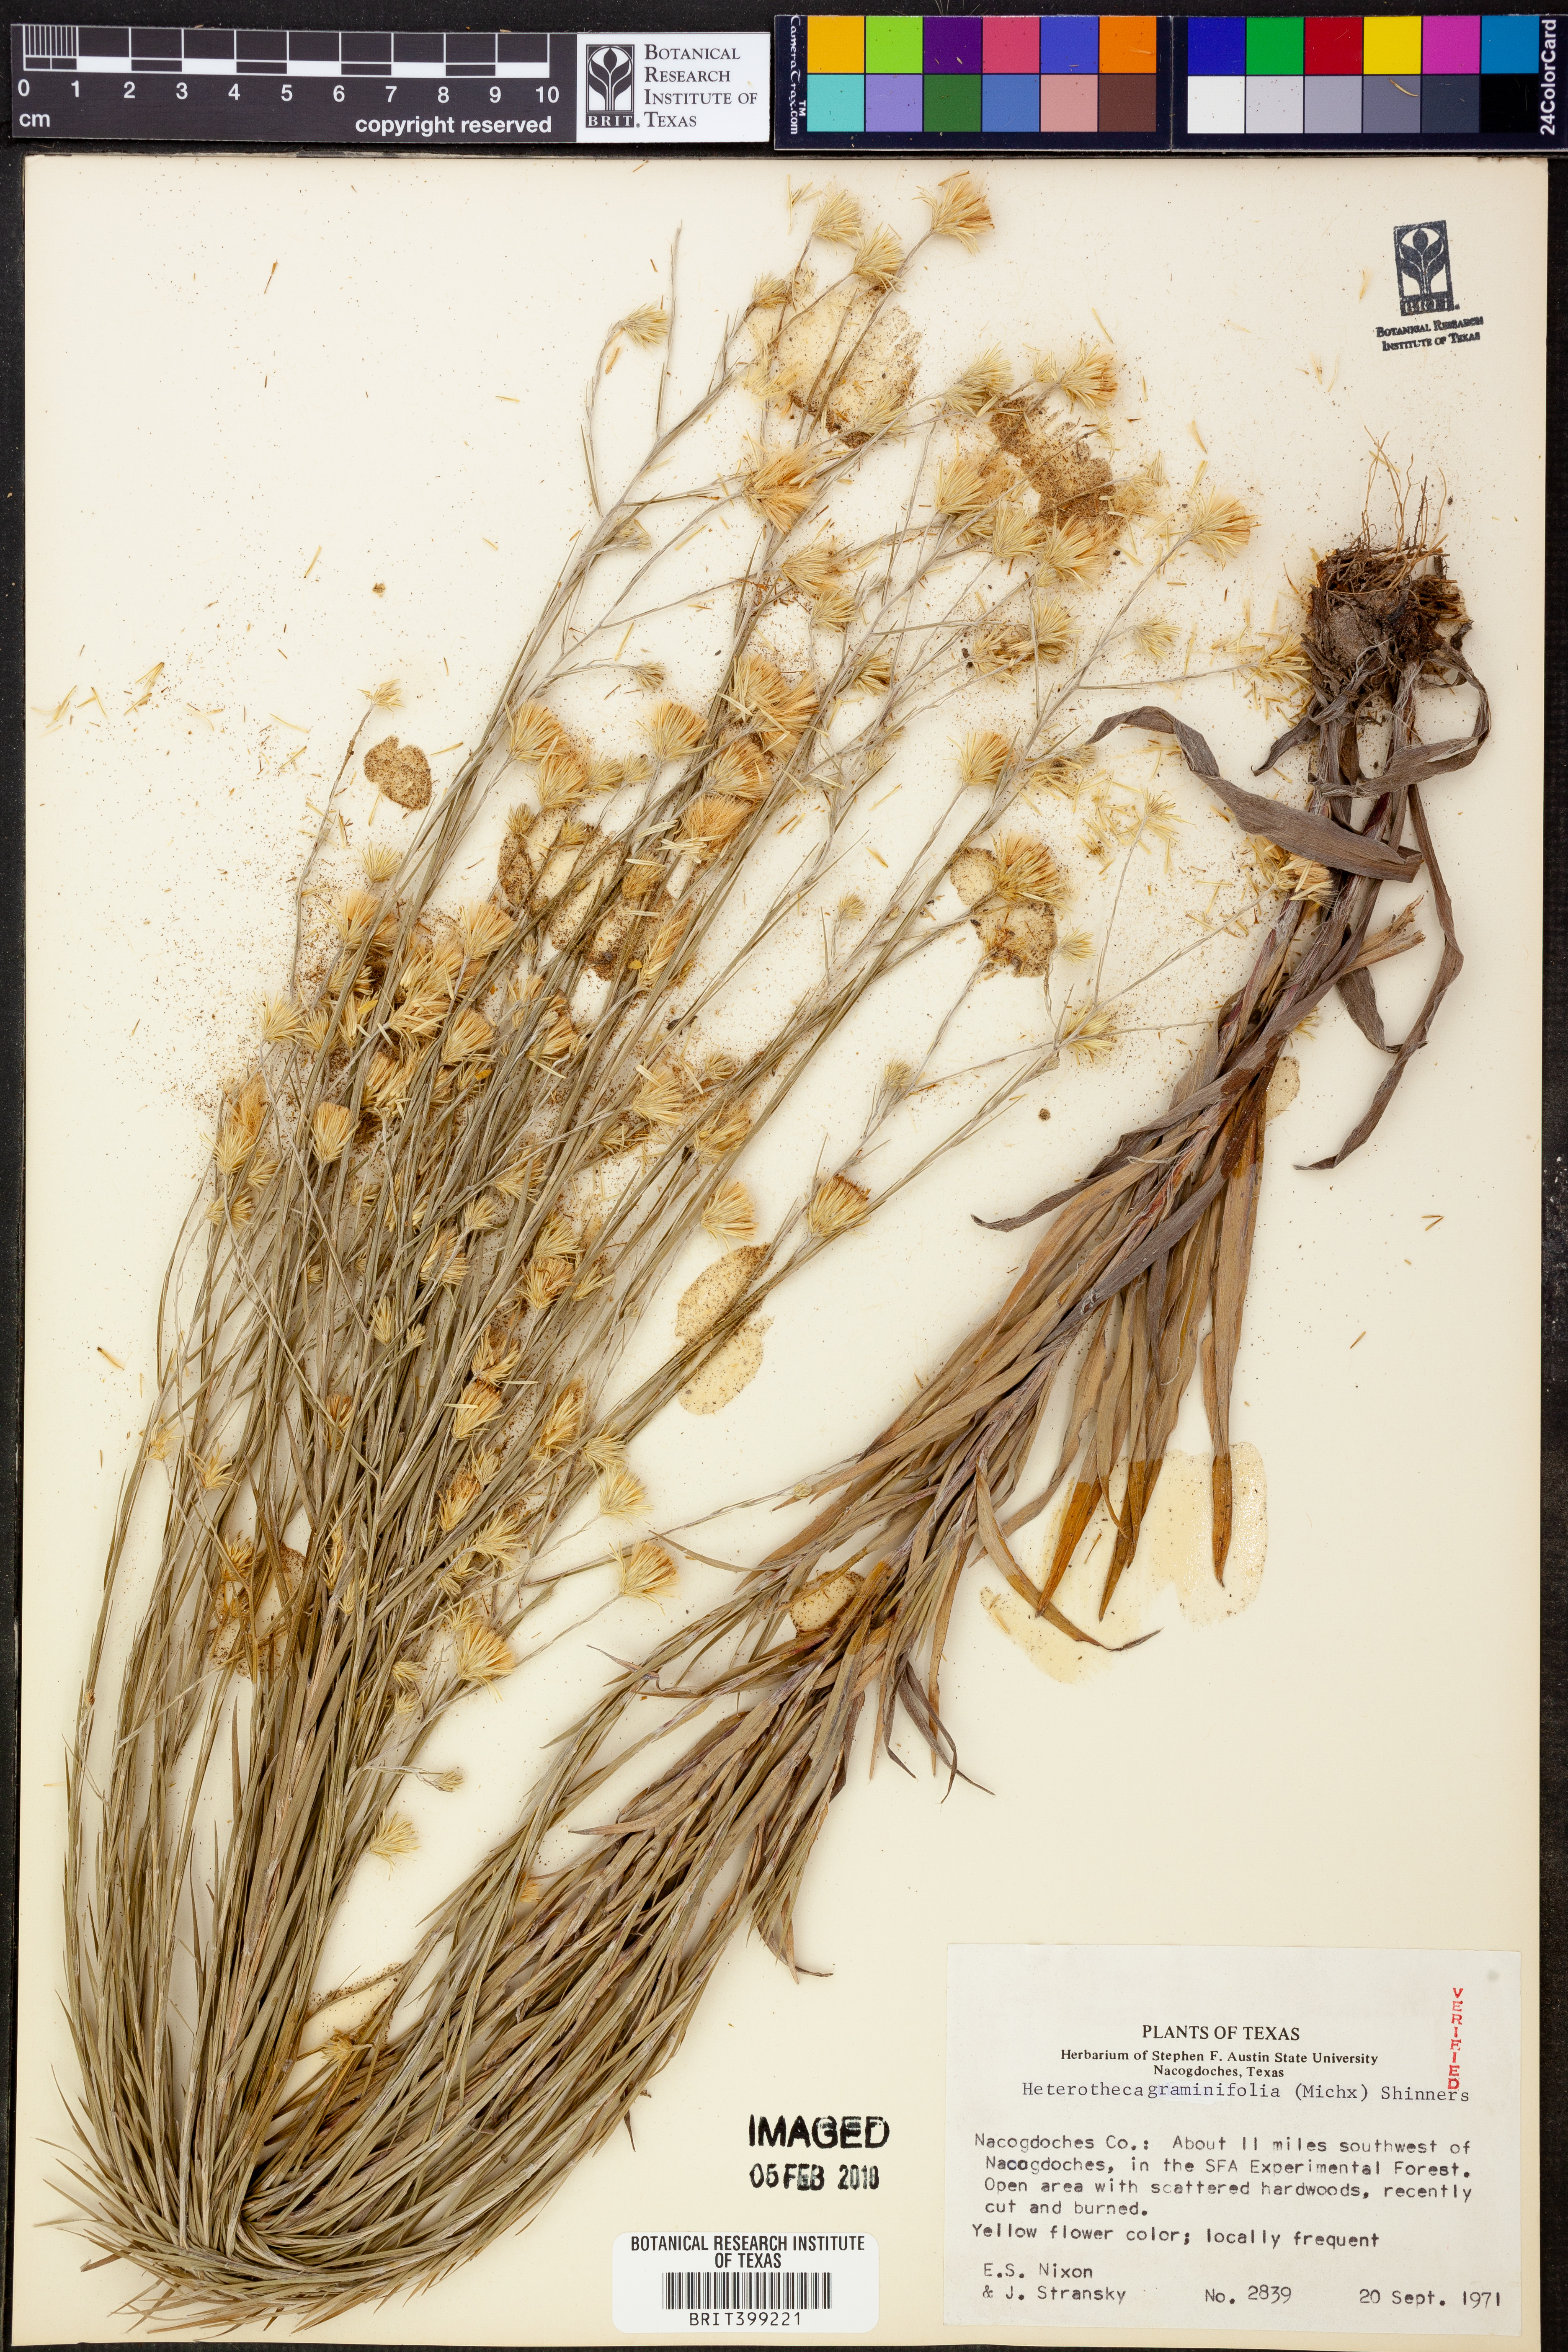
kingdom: Plantae
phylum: Tracheophyta
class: Magnoliopsida
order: Asterales
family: Asteraceae
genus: Pityopsis
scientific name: Pityopsis graminifolia
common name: Grass-leaf golden-aster
